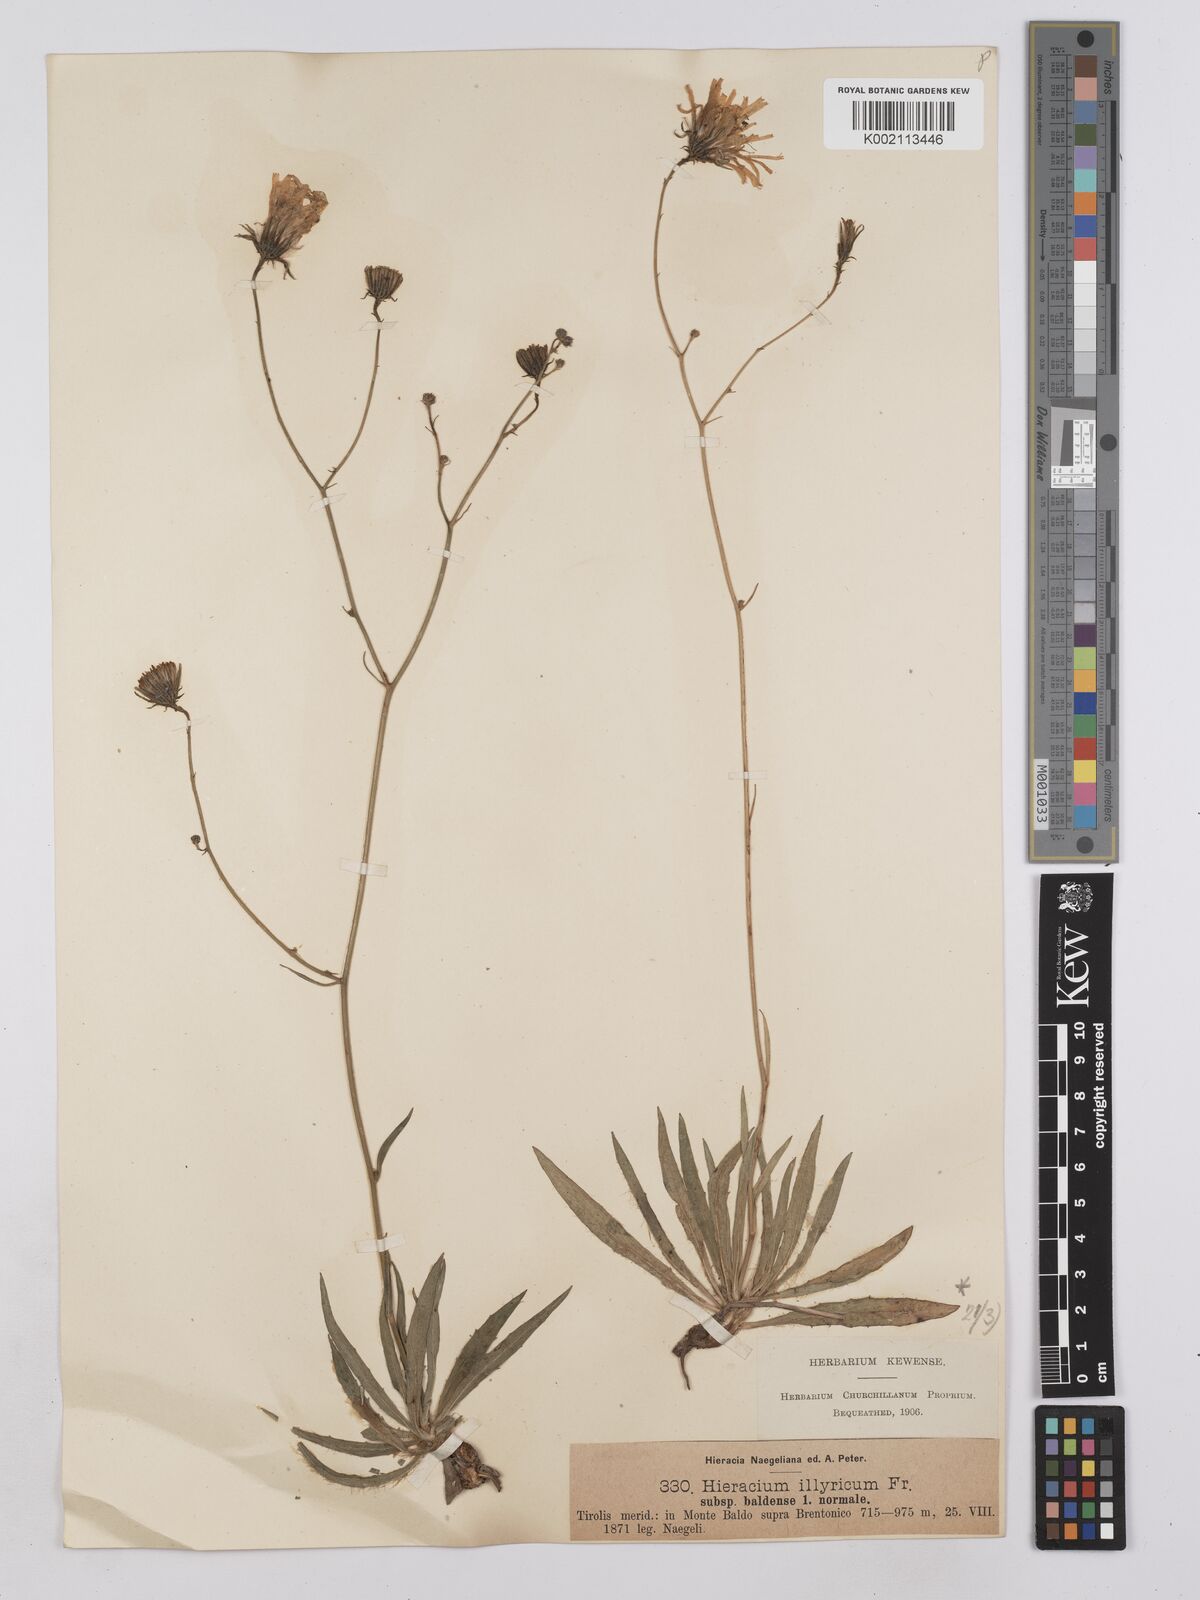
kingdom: Plantae
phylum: Tracheophyta
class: Magnoliopsida
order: Asterales
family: Asteraceae
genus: Hieracium
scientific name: Hieracium calcareum
